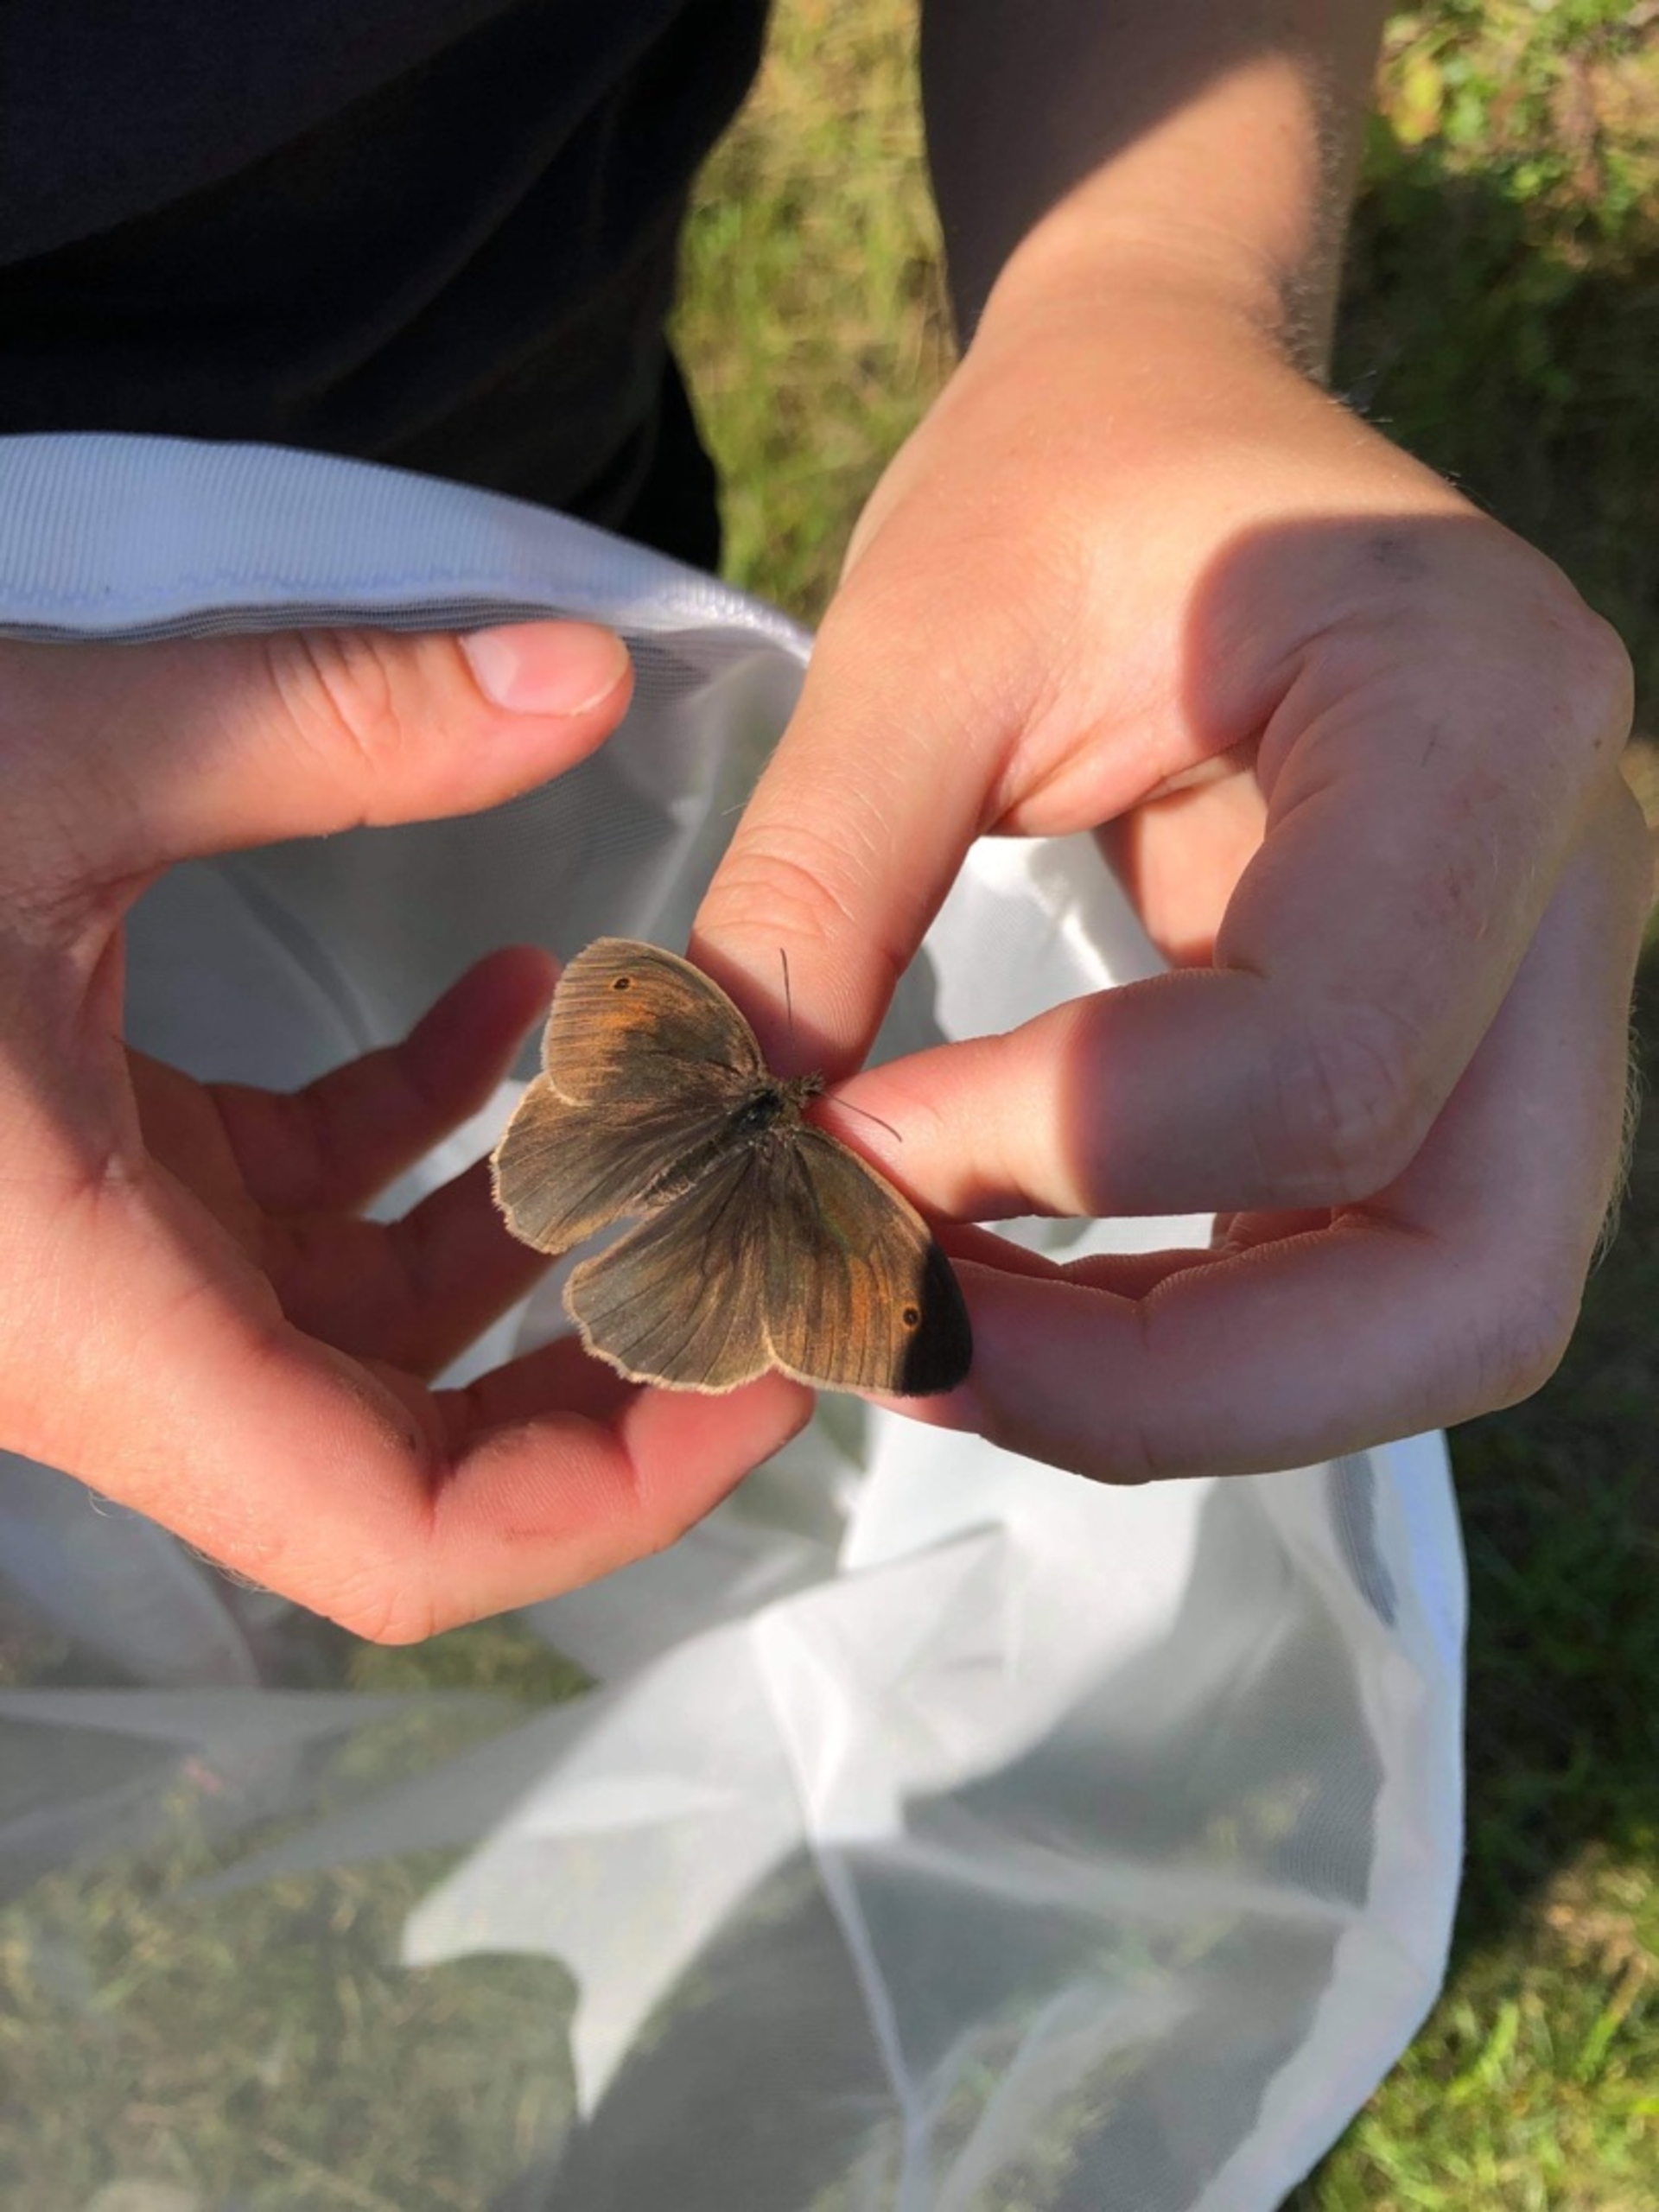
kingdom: Animalia
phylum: Arthropoda
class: Insecta
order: Lepidoptera
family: Nymphalidae
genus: Maniola
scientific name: Maniola jurtina
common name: Græsrandøje
